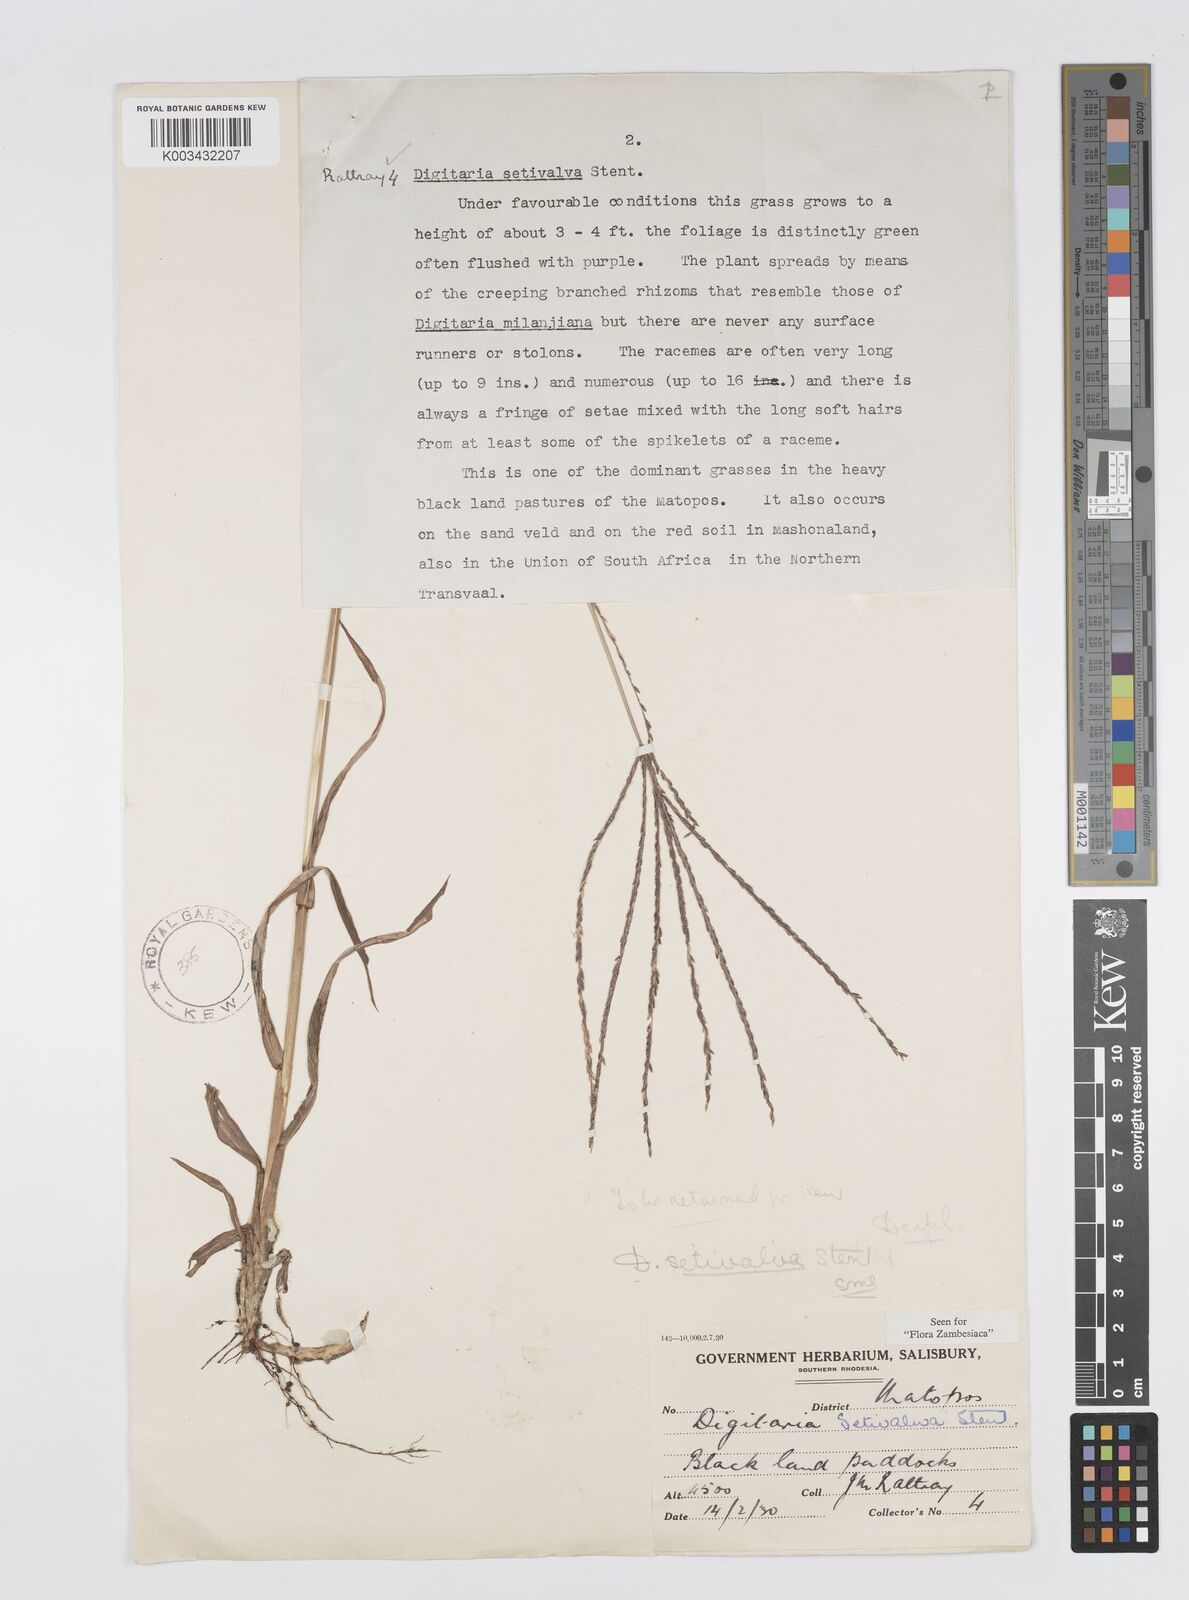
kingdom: Plantae
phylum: Tracheophyta
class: Liliopsida
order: Poales
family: Poaceae
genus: Digitaria
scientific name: Digitaria milanjiana
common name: Madagascar crabgrass
